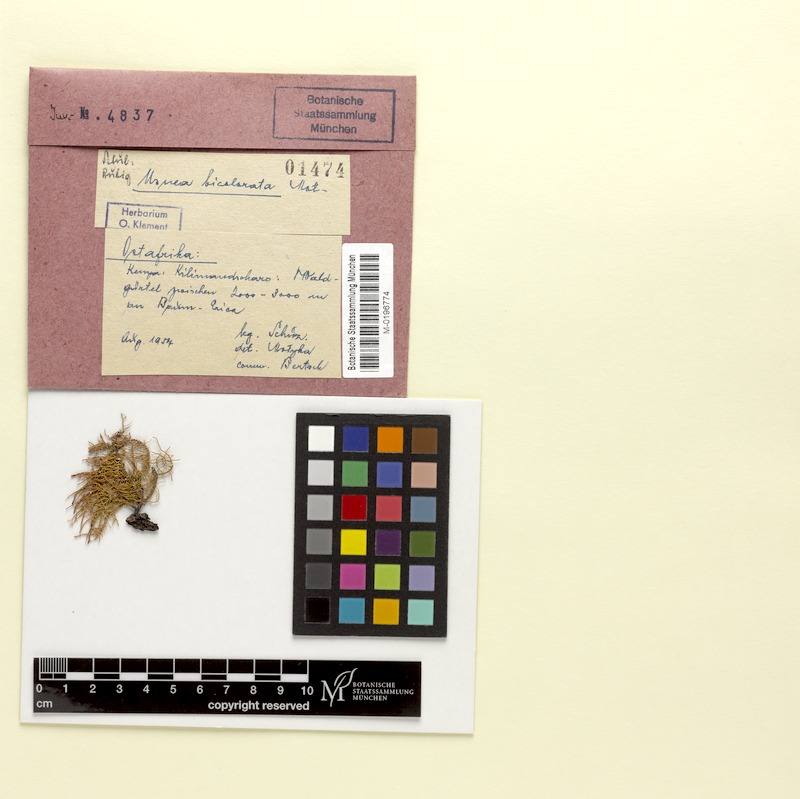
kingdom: Fungi
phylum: Ascomycota
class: Lecanoromycetes
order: Lecanorales
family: Parmeliaceae
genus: Usnea
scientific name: Usnea bicolorata
